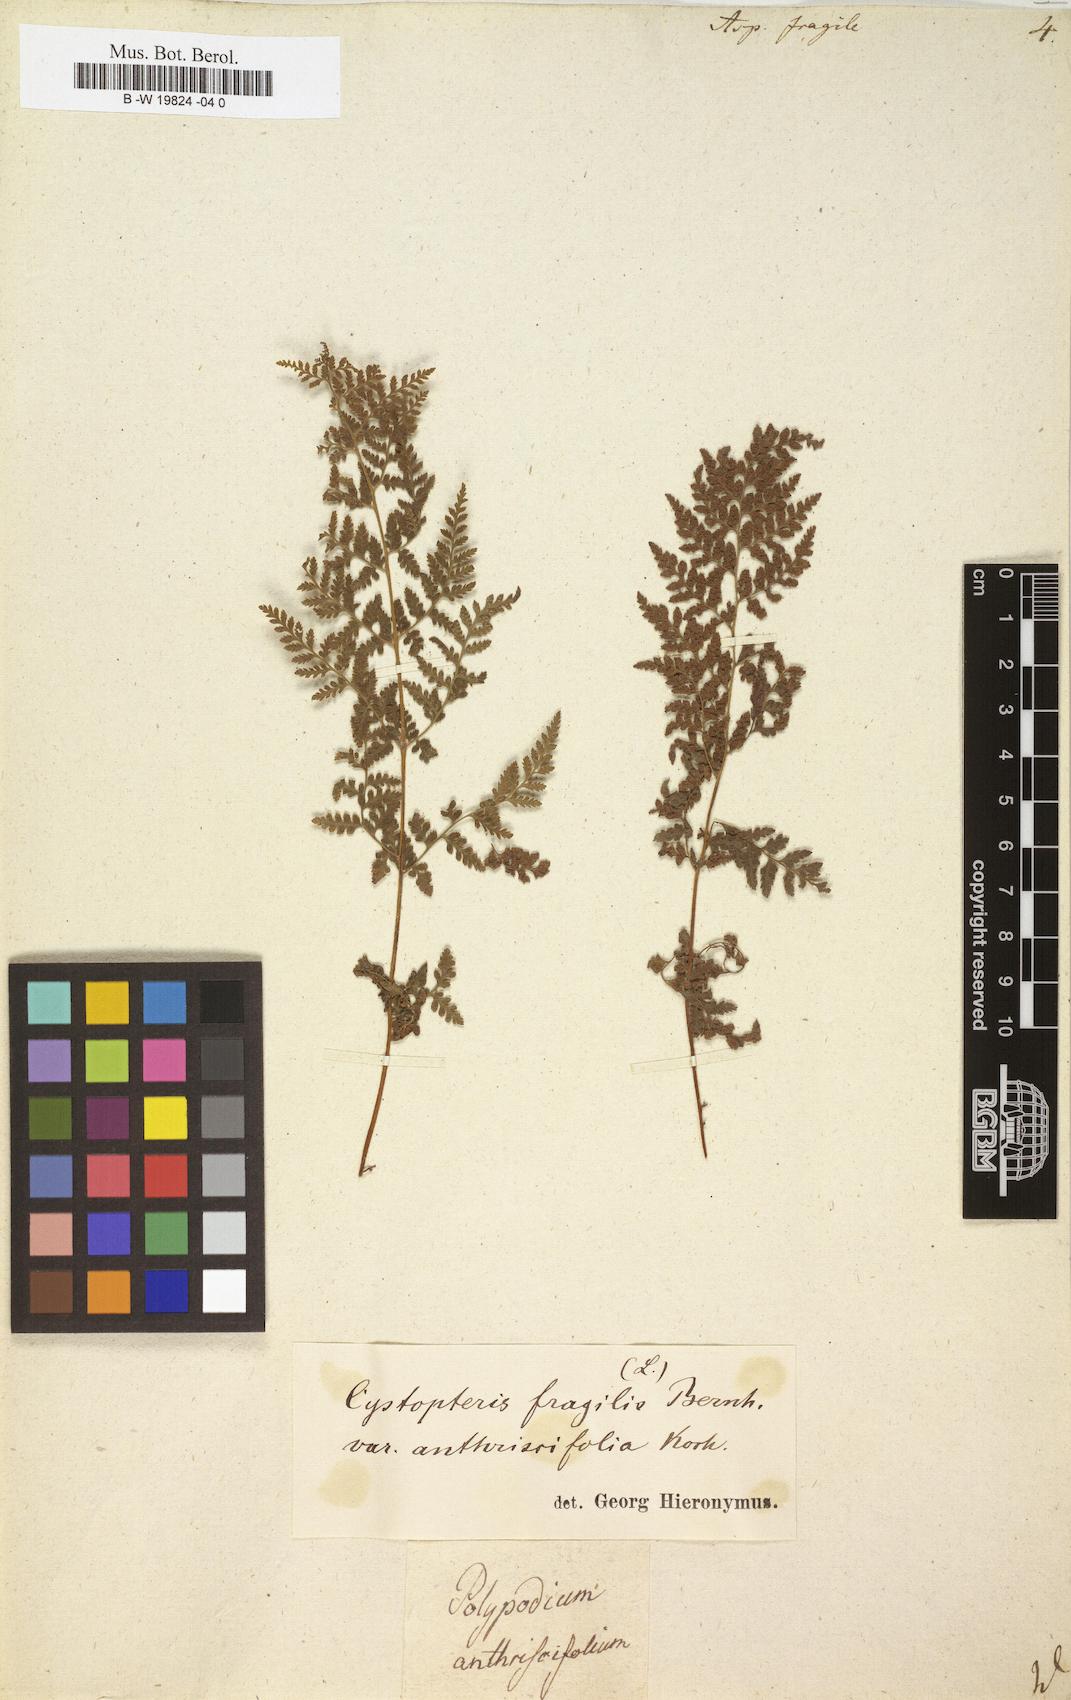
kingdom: Plantae
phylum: Tracheophyta
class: Polypodiopsida
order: Polypodiales
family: Cystopteridaceae
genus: Cystopteris
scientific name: Cystopteris fragilis
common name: Brittle bladder fern
